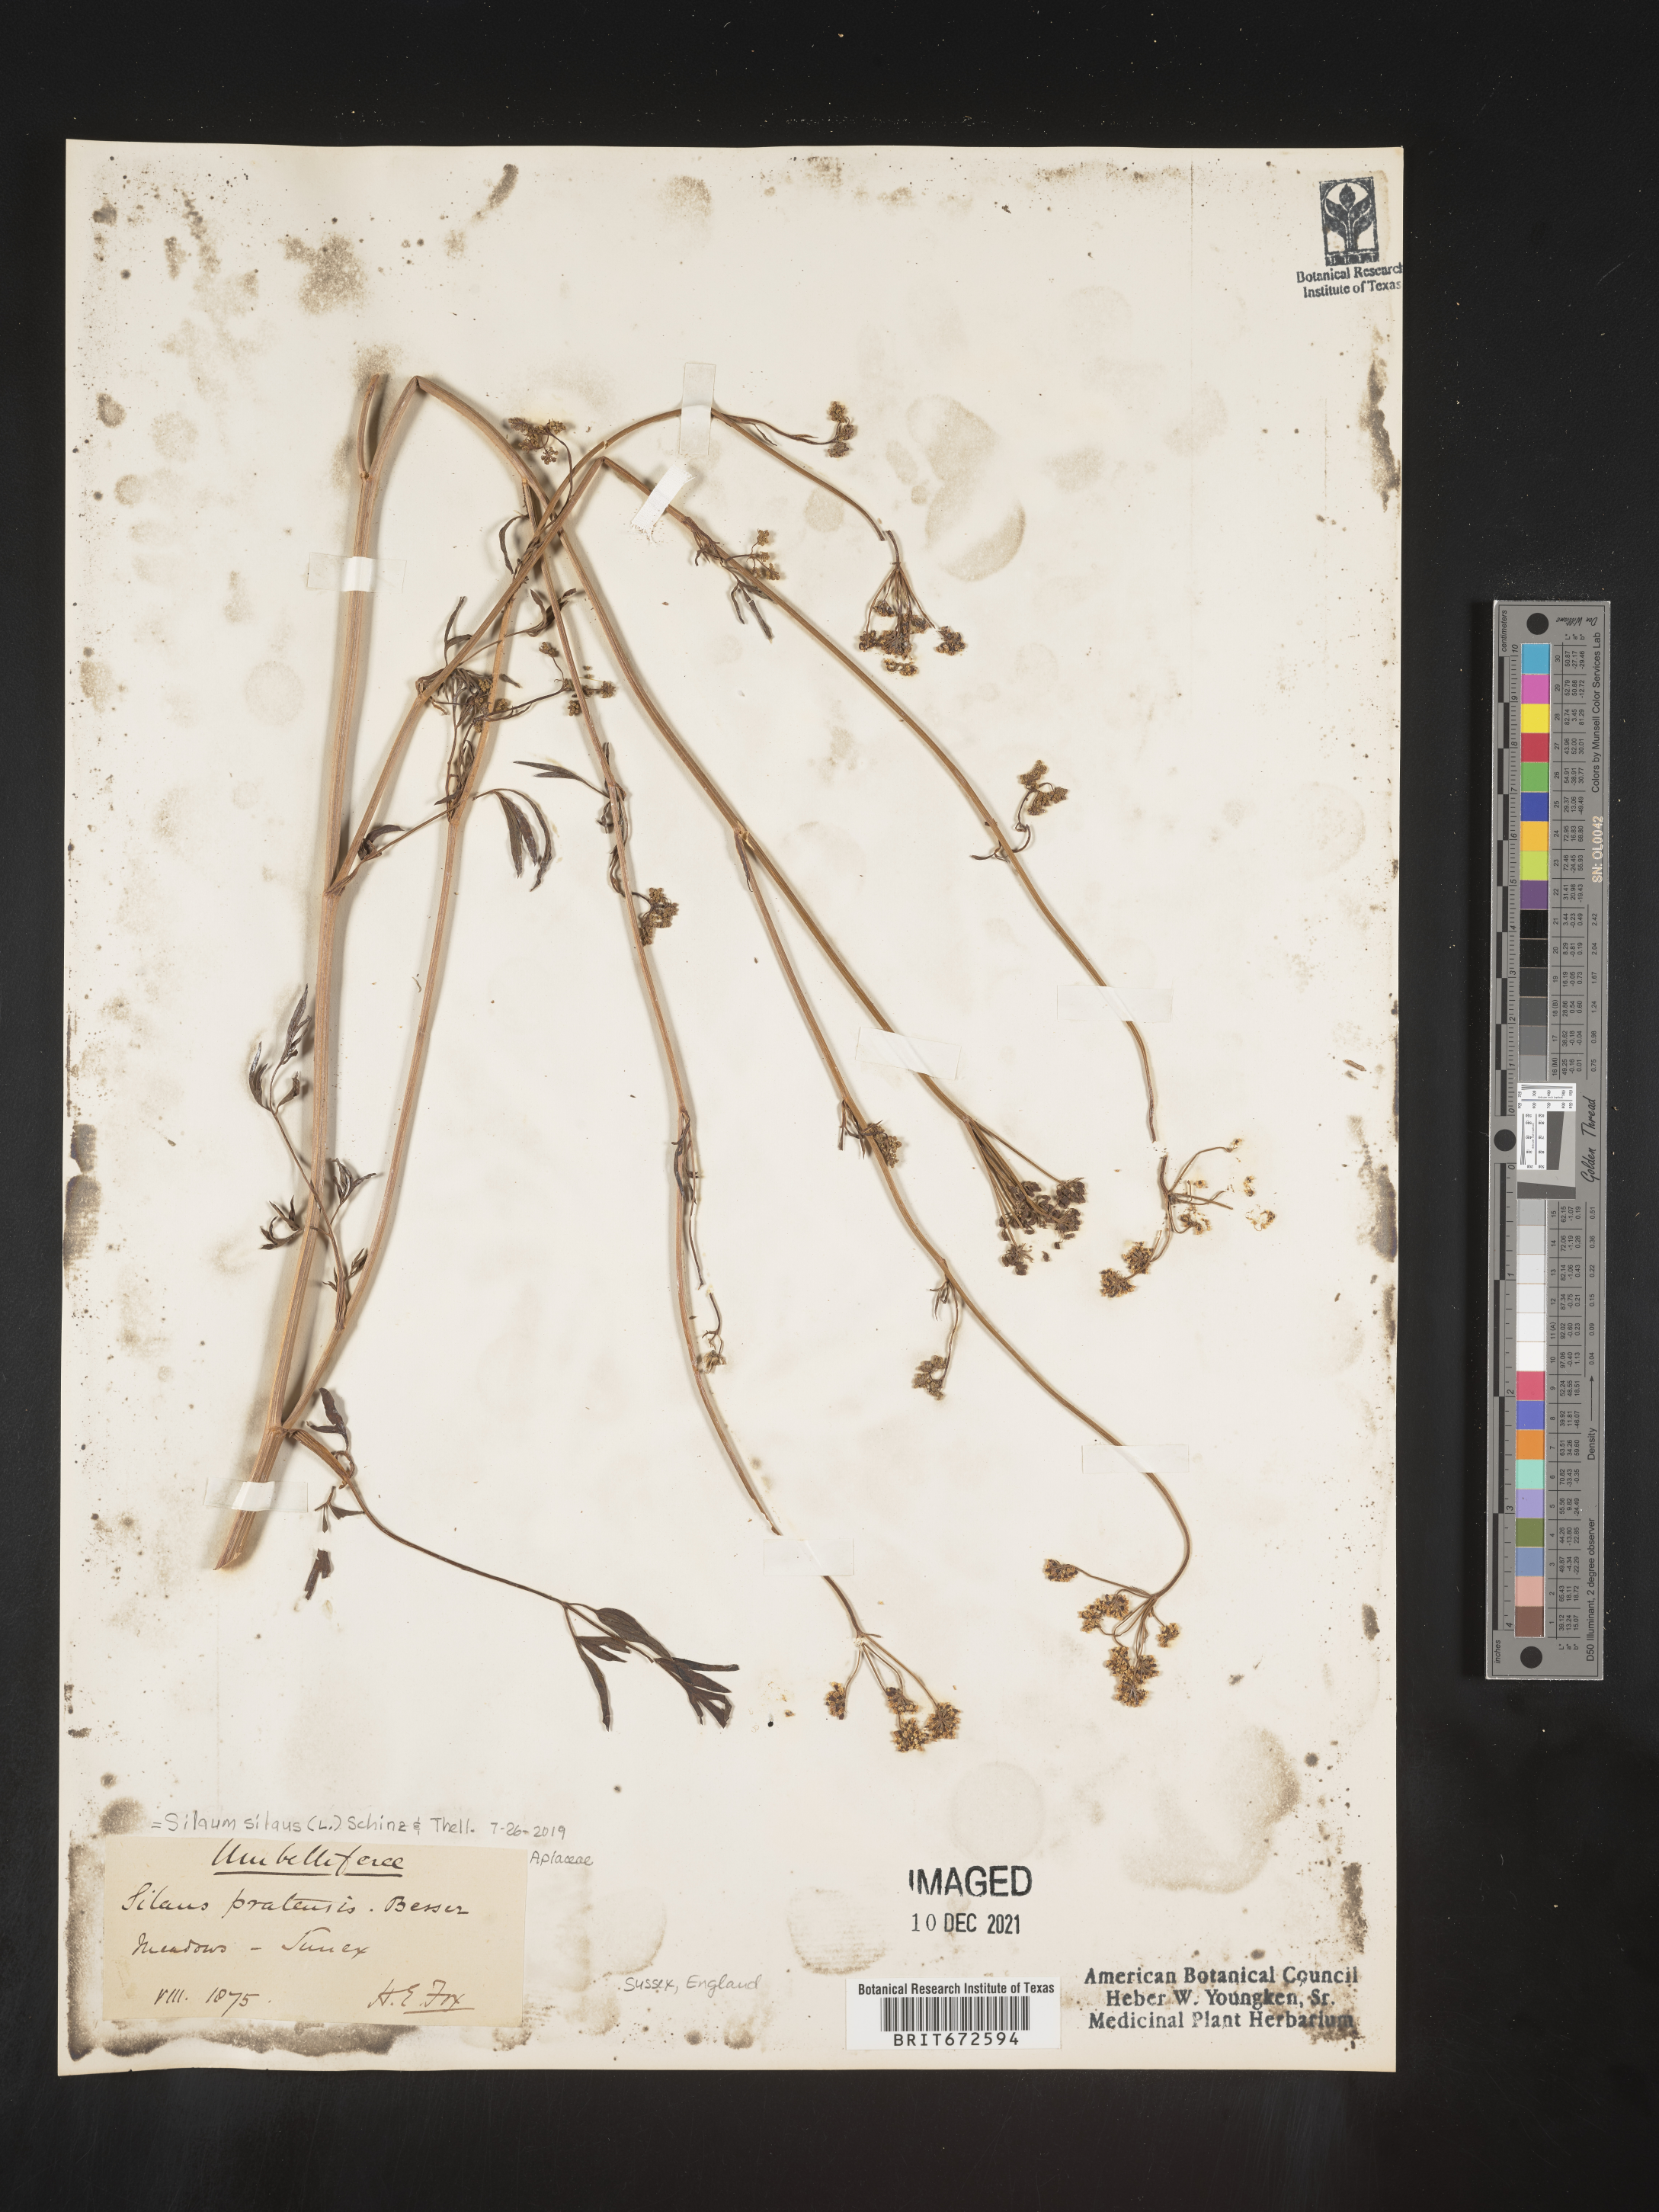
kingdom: Plantae
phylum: Tracheophyta
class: Magnoliopsida
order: Apiales
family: Apiaceae
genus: Silaum
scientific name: Silaum
